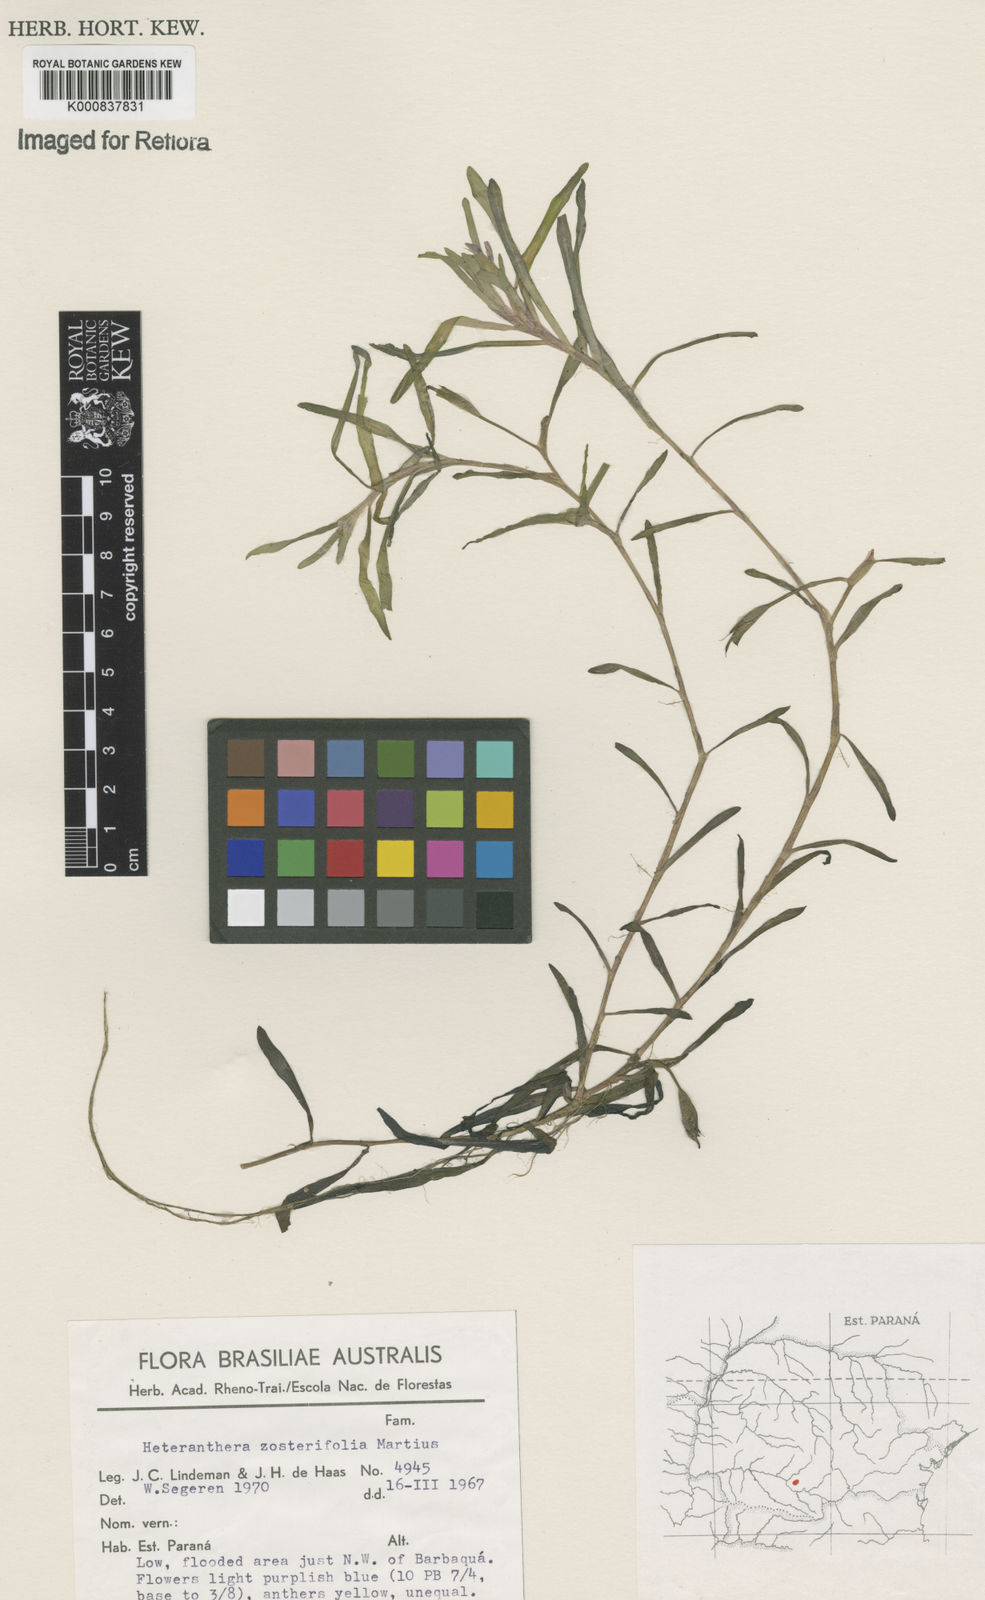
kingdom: Plantae
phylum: Tracheophyta
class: Liliopsida
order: Commelinales
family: Pontederiaceae
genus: Heteranthera
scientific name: Heteranthera zosterifolia
